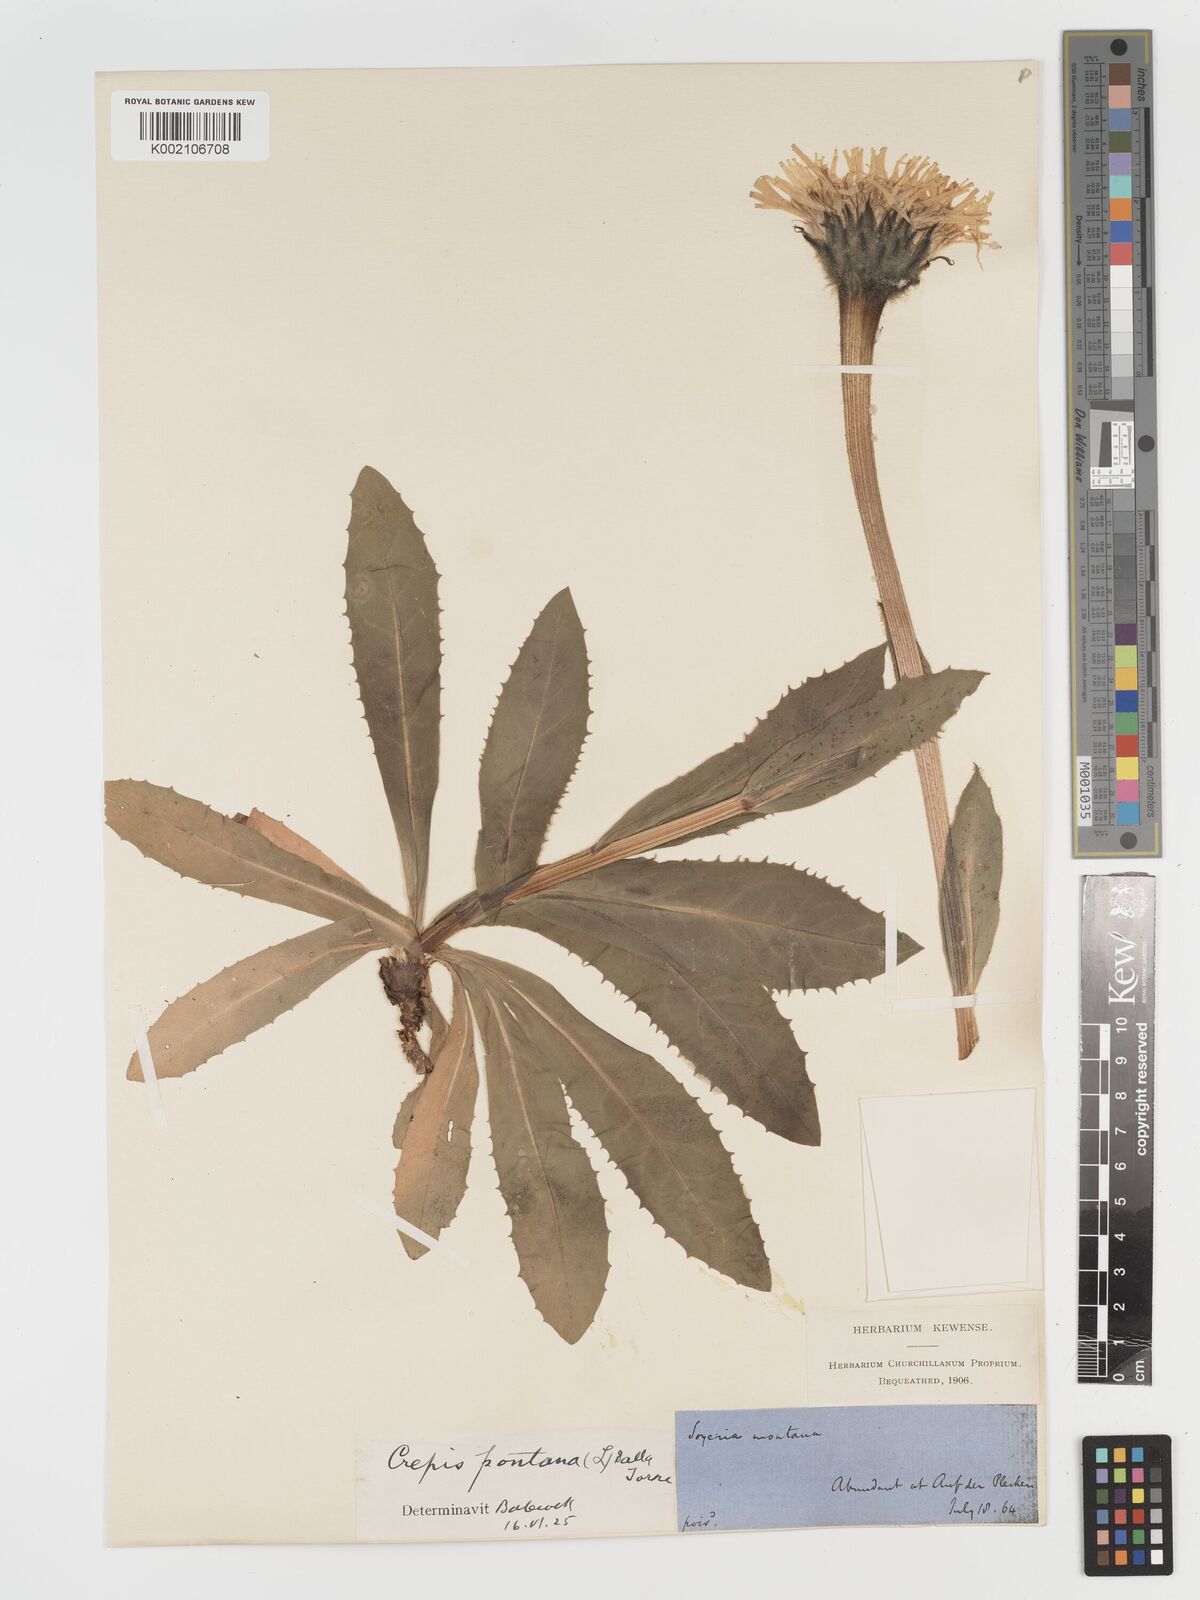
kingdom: Plantae
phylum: Tracheophyta
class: Magnoliopsida
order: Asterales
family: Asteraceae
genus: Crepis
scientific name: Crepis pontana
